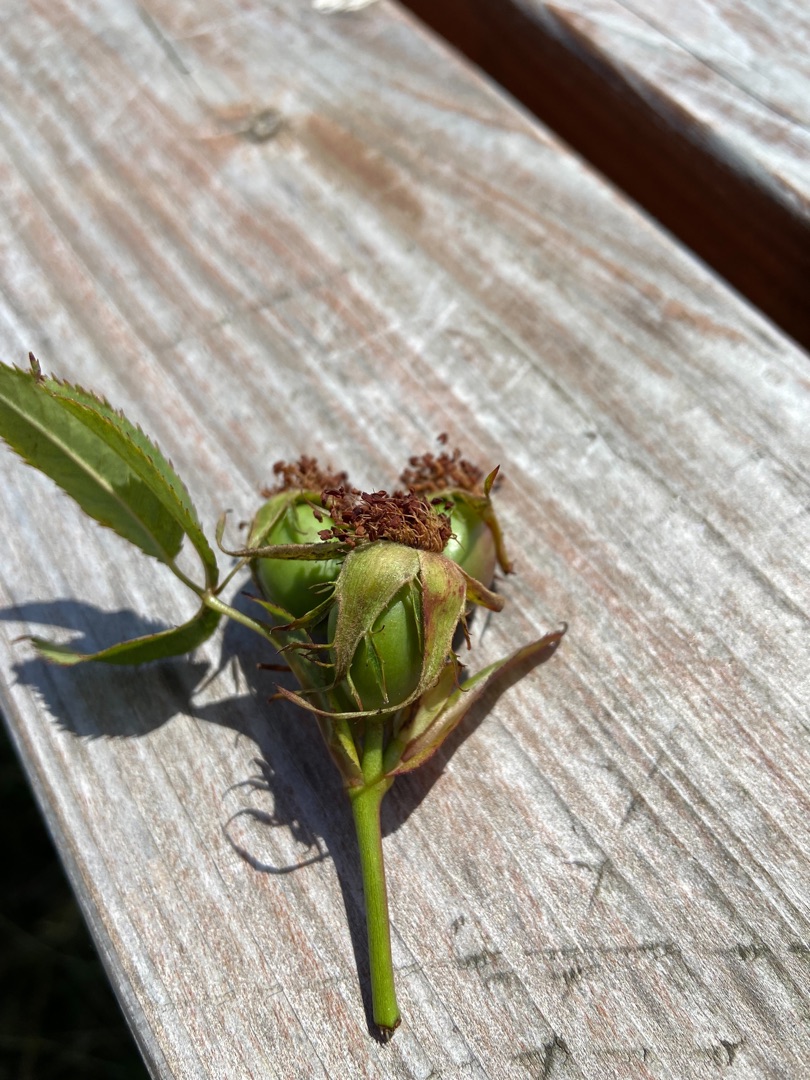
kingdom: Plantae
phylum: Tracheophyta
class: Magnoliopsida
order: Rosales
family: Rosaceae
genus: Rosa
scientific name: Rosa canina
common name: Hunde-rose
